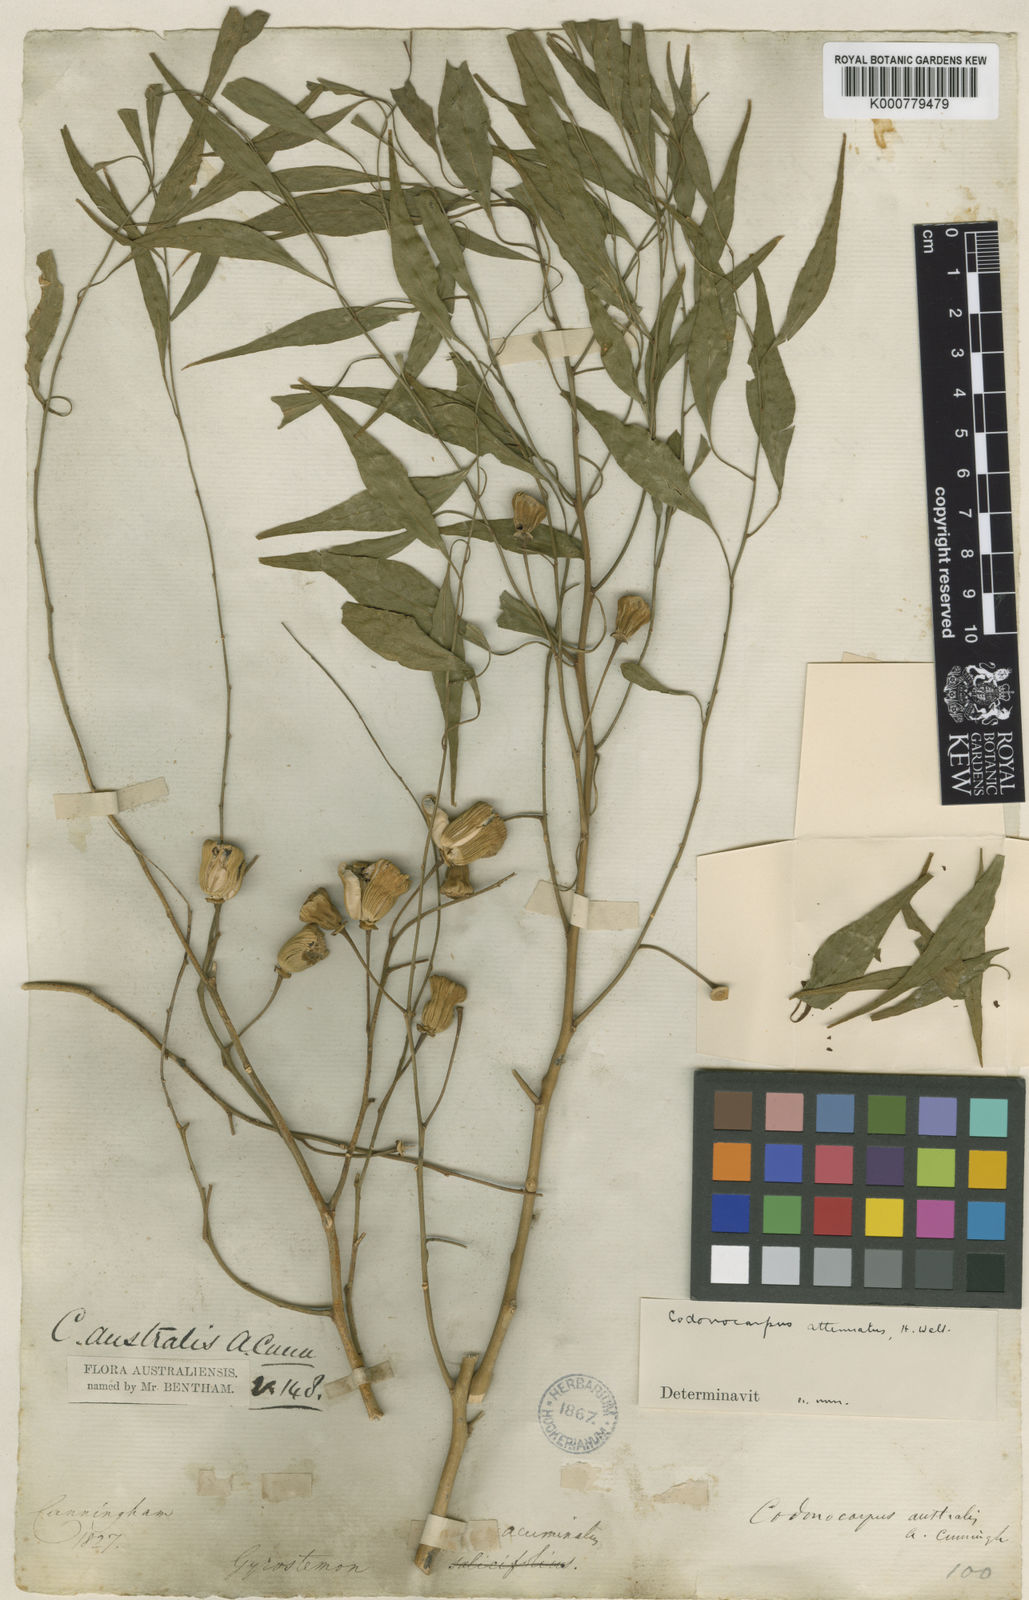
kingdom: Plantae
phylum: Tracheophyta
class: Magnoliopsida
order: Brassicales
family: Gyrostemonaceae
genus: Codonocarpus
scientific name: Codonocarpus attenuatus
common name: Bell-fruit-tree
